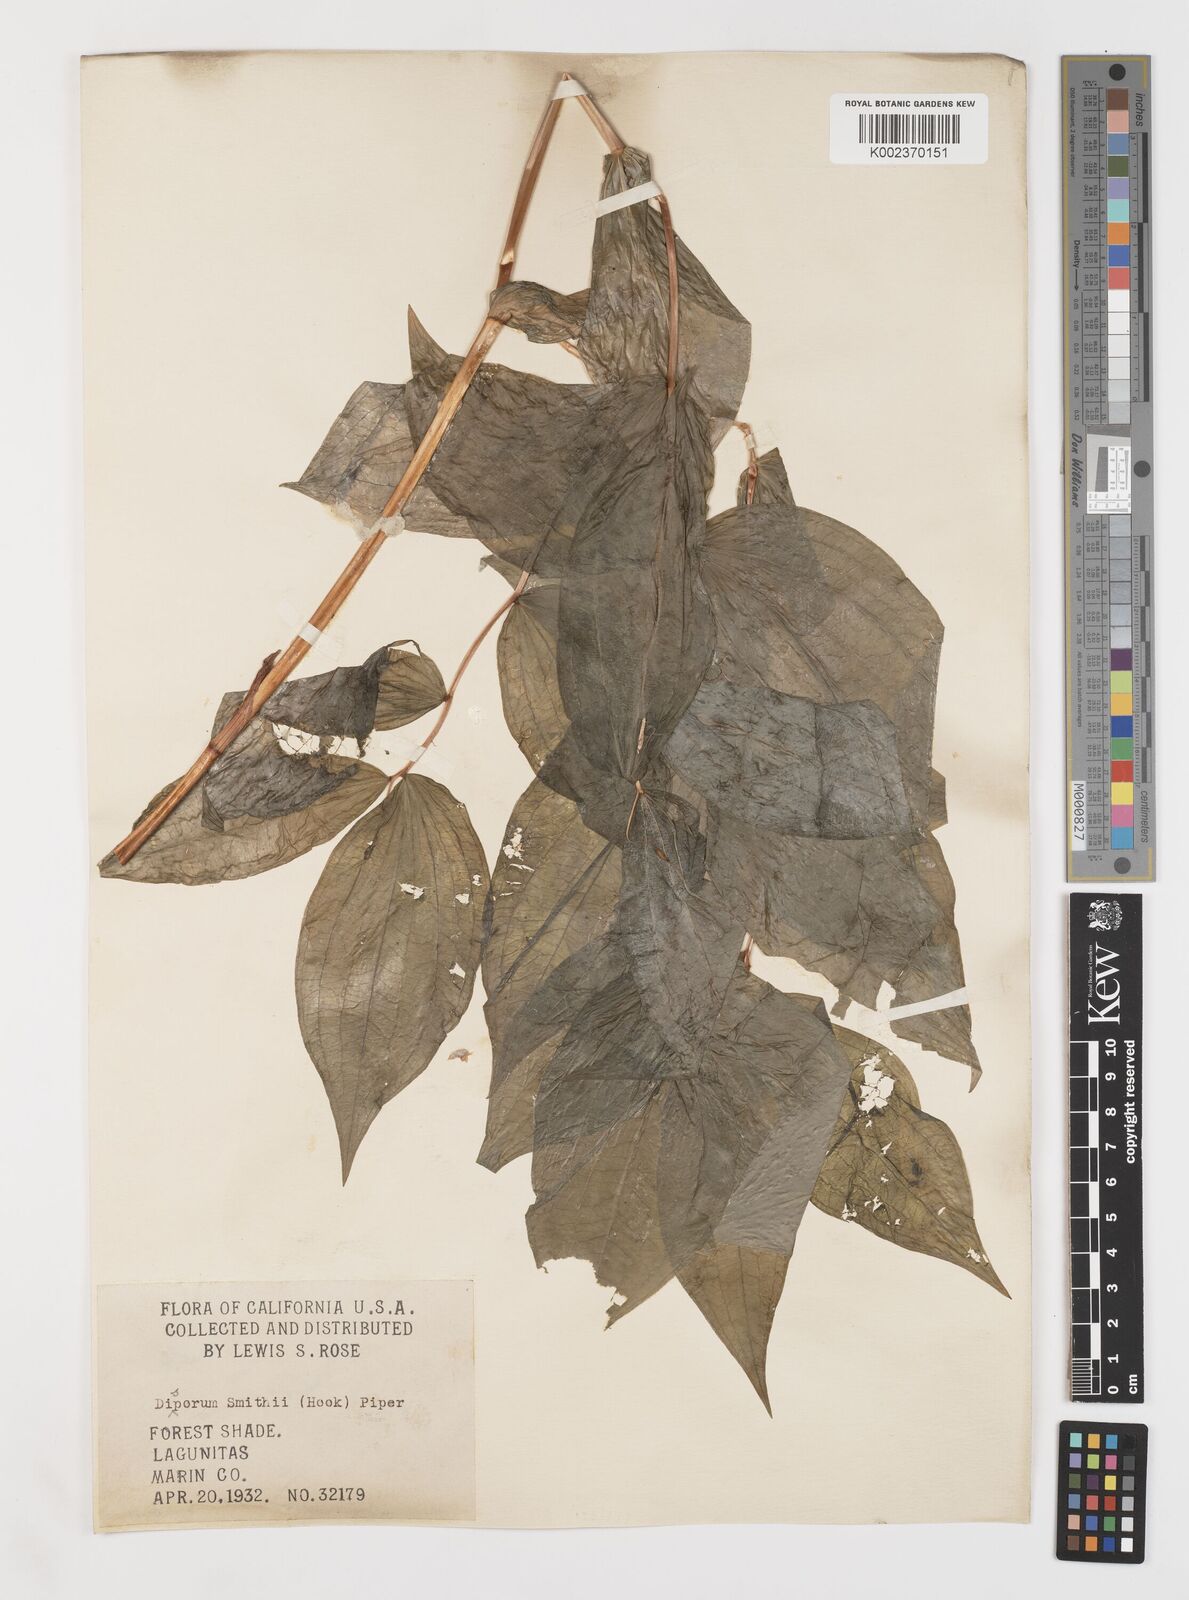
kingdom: Plantae
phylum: Tracheophyta
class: Liliopsida
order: Liliales
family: Liliaceae
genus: Prosartes
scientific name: Prosartes smithii
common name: Fairy-lantern
